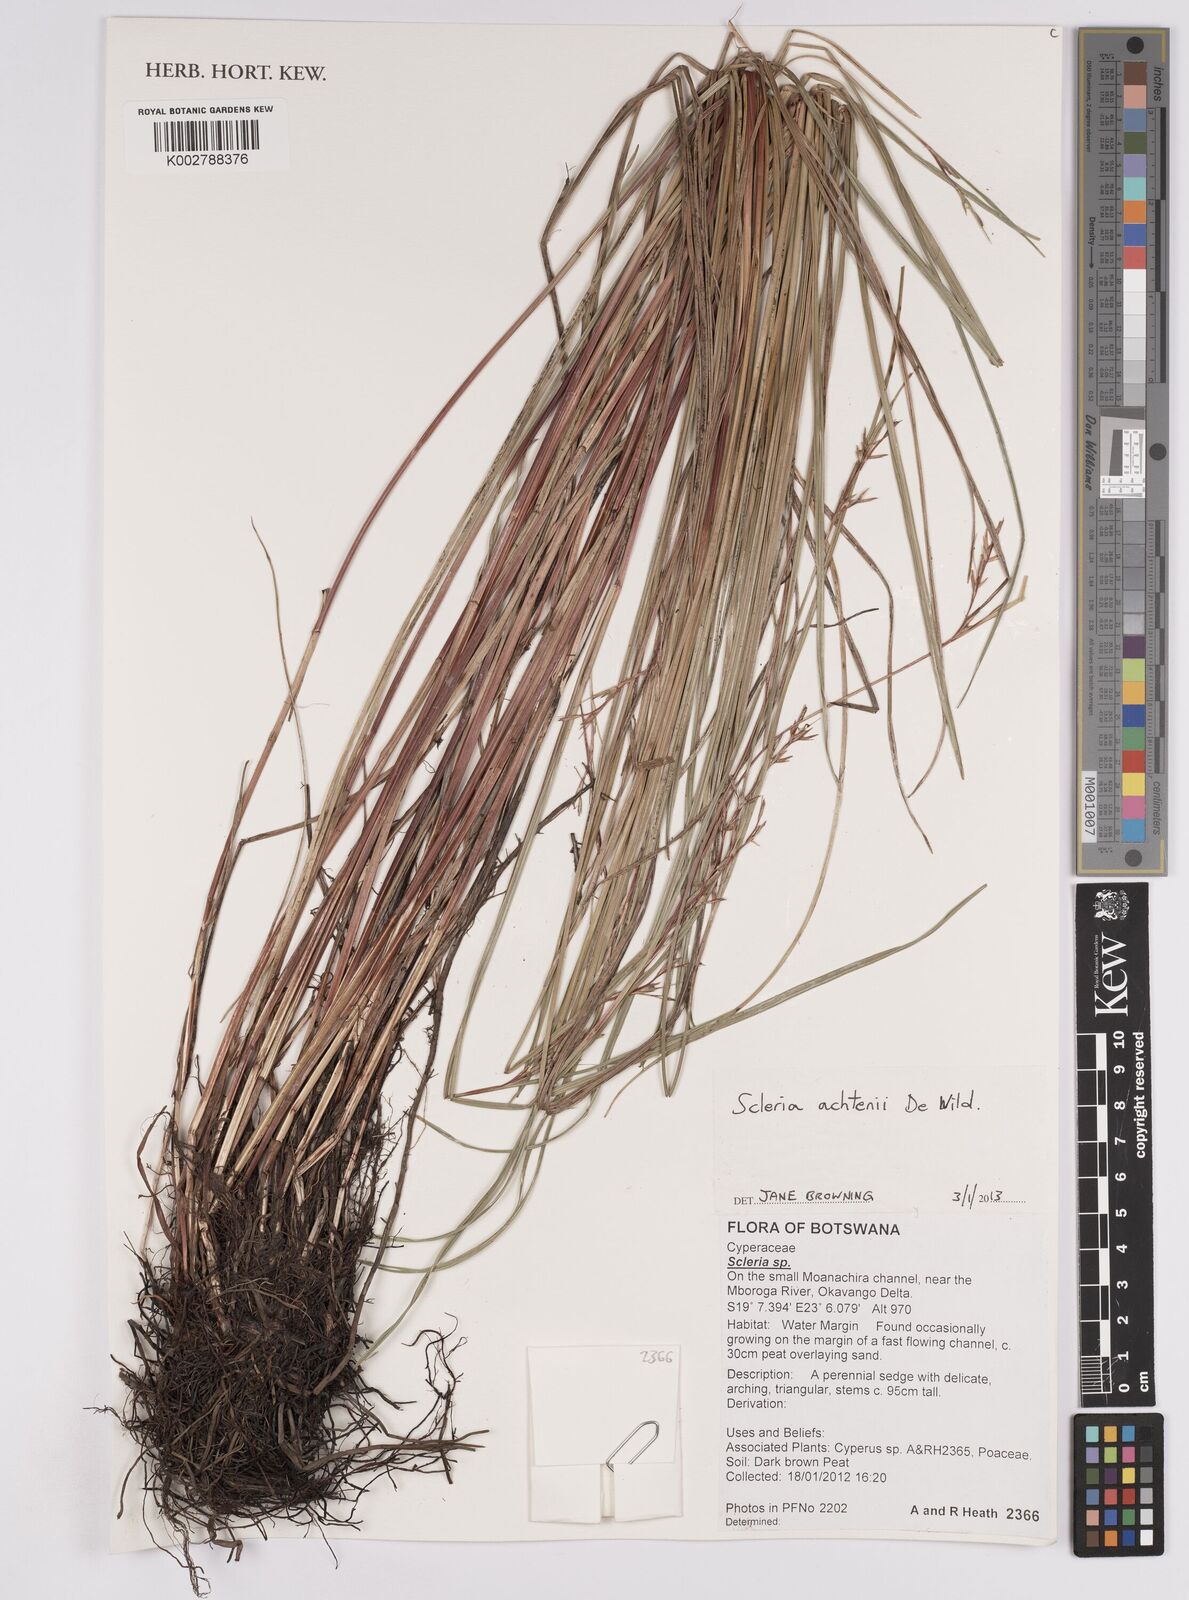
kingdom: Plantae
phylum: Tracheophyta
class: Liliopsida
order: Poales
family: Cyperaceae
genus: Scleria
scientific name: Scleria achtenii
